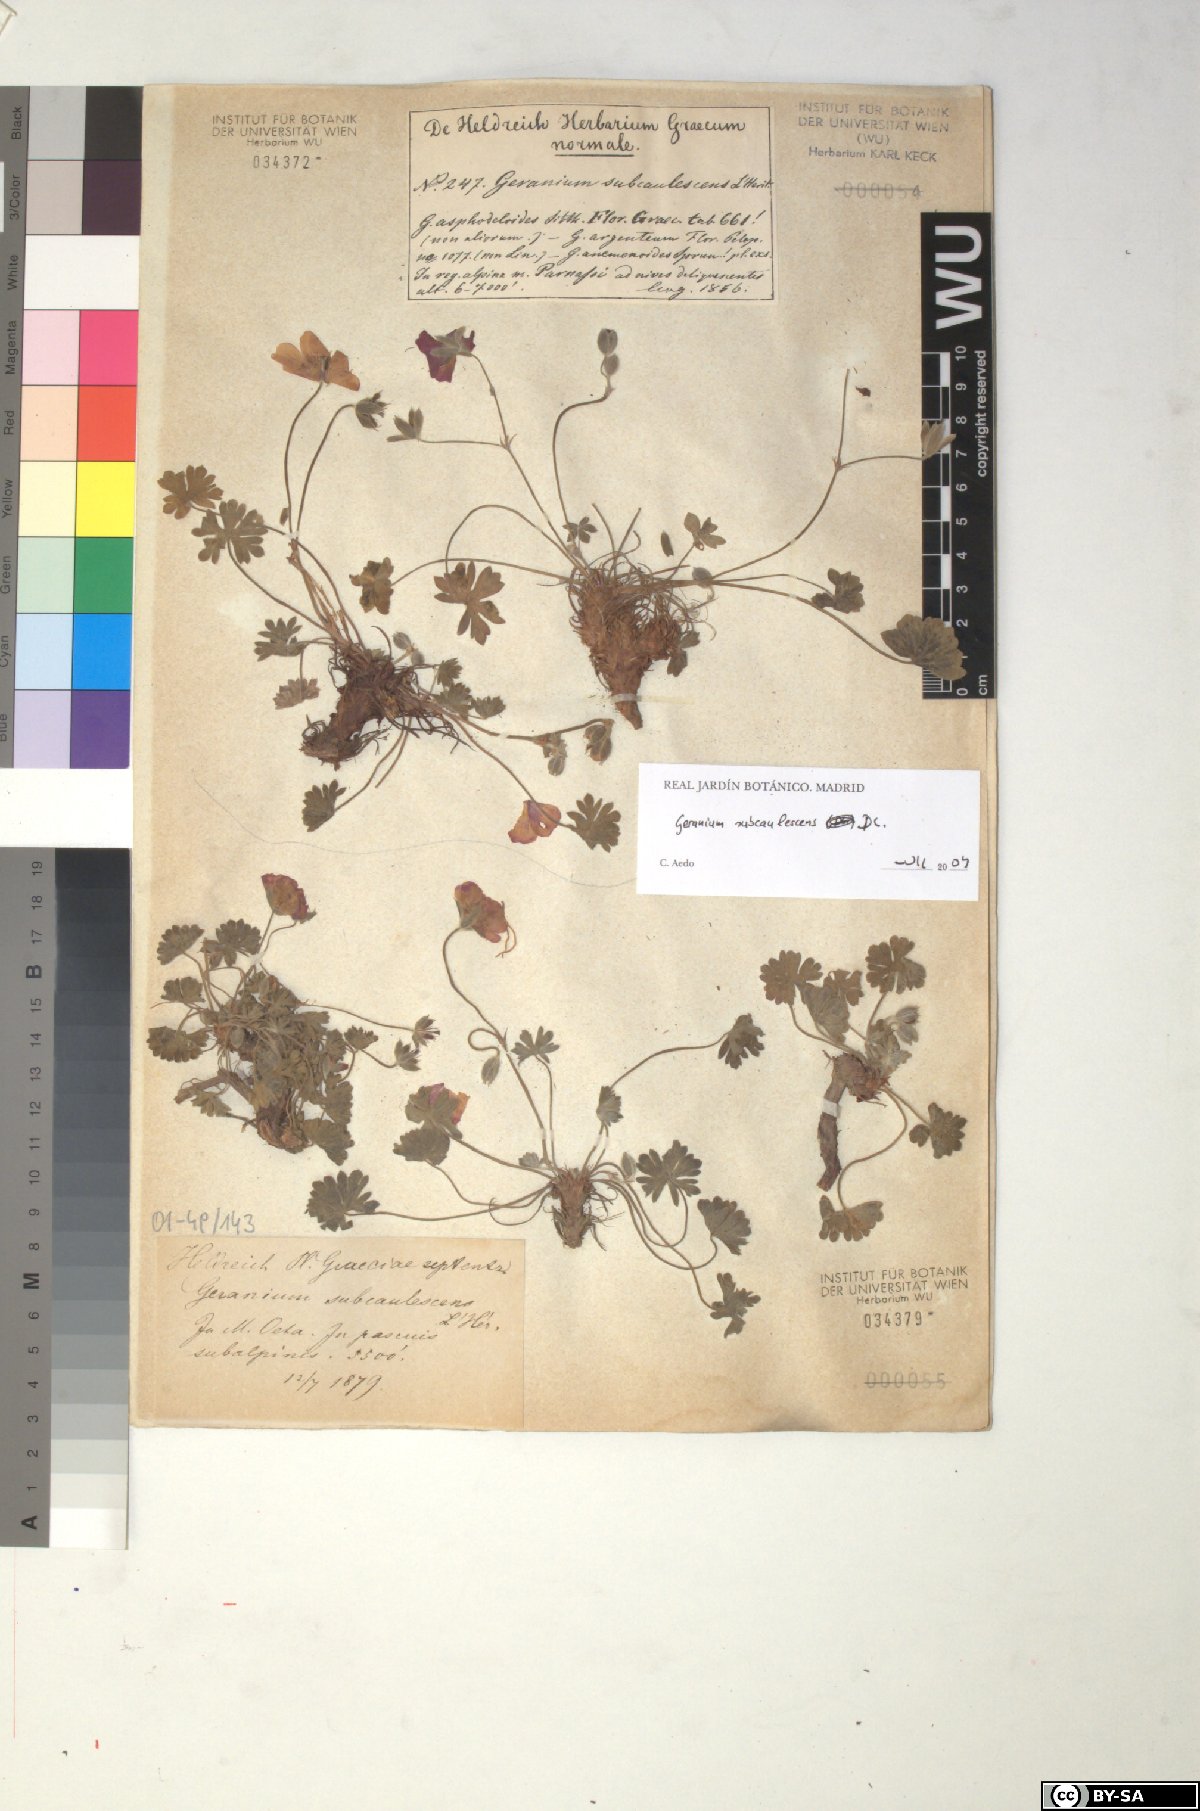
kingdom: Plantae
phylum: Tracheophyta
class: Magnoliopsida
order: Geraniales
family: Geraniaceae
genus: Geranium
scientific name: Geranium subcaulescens
